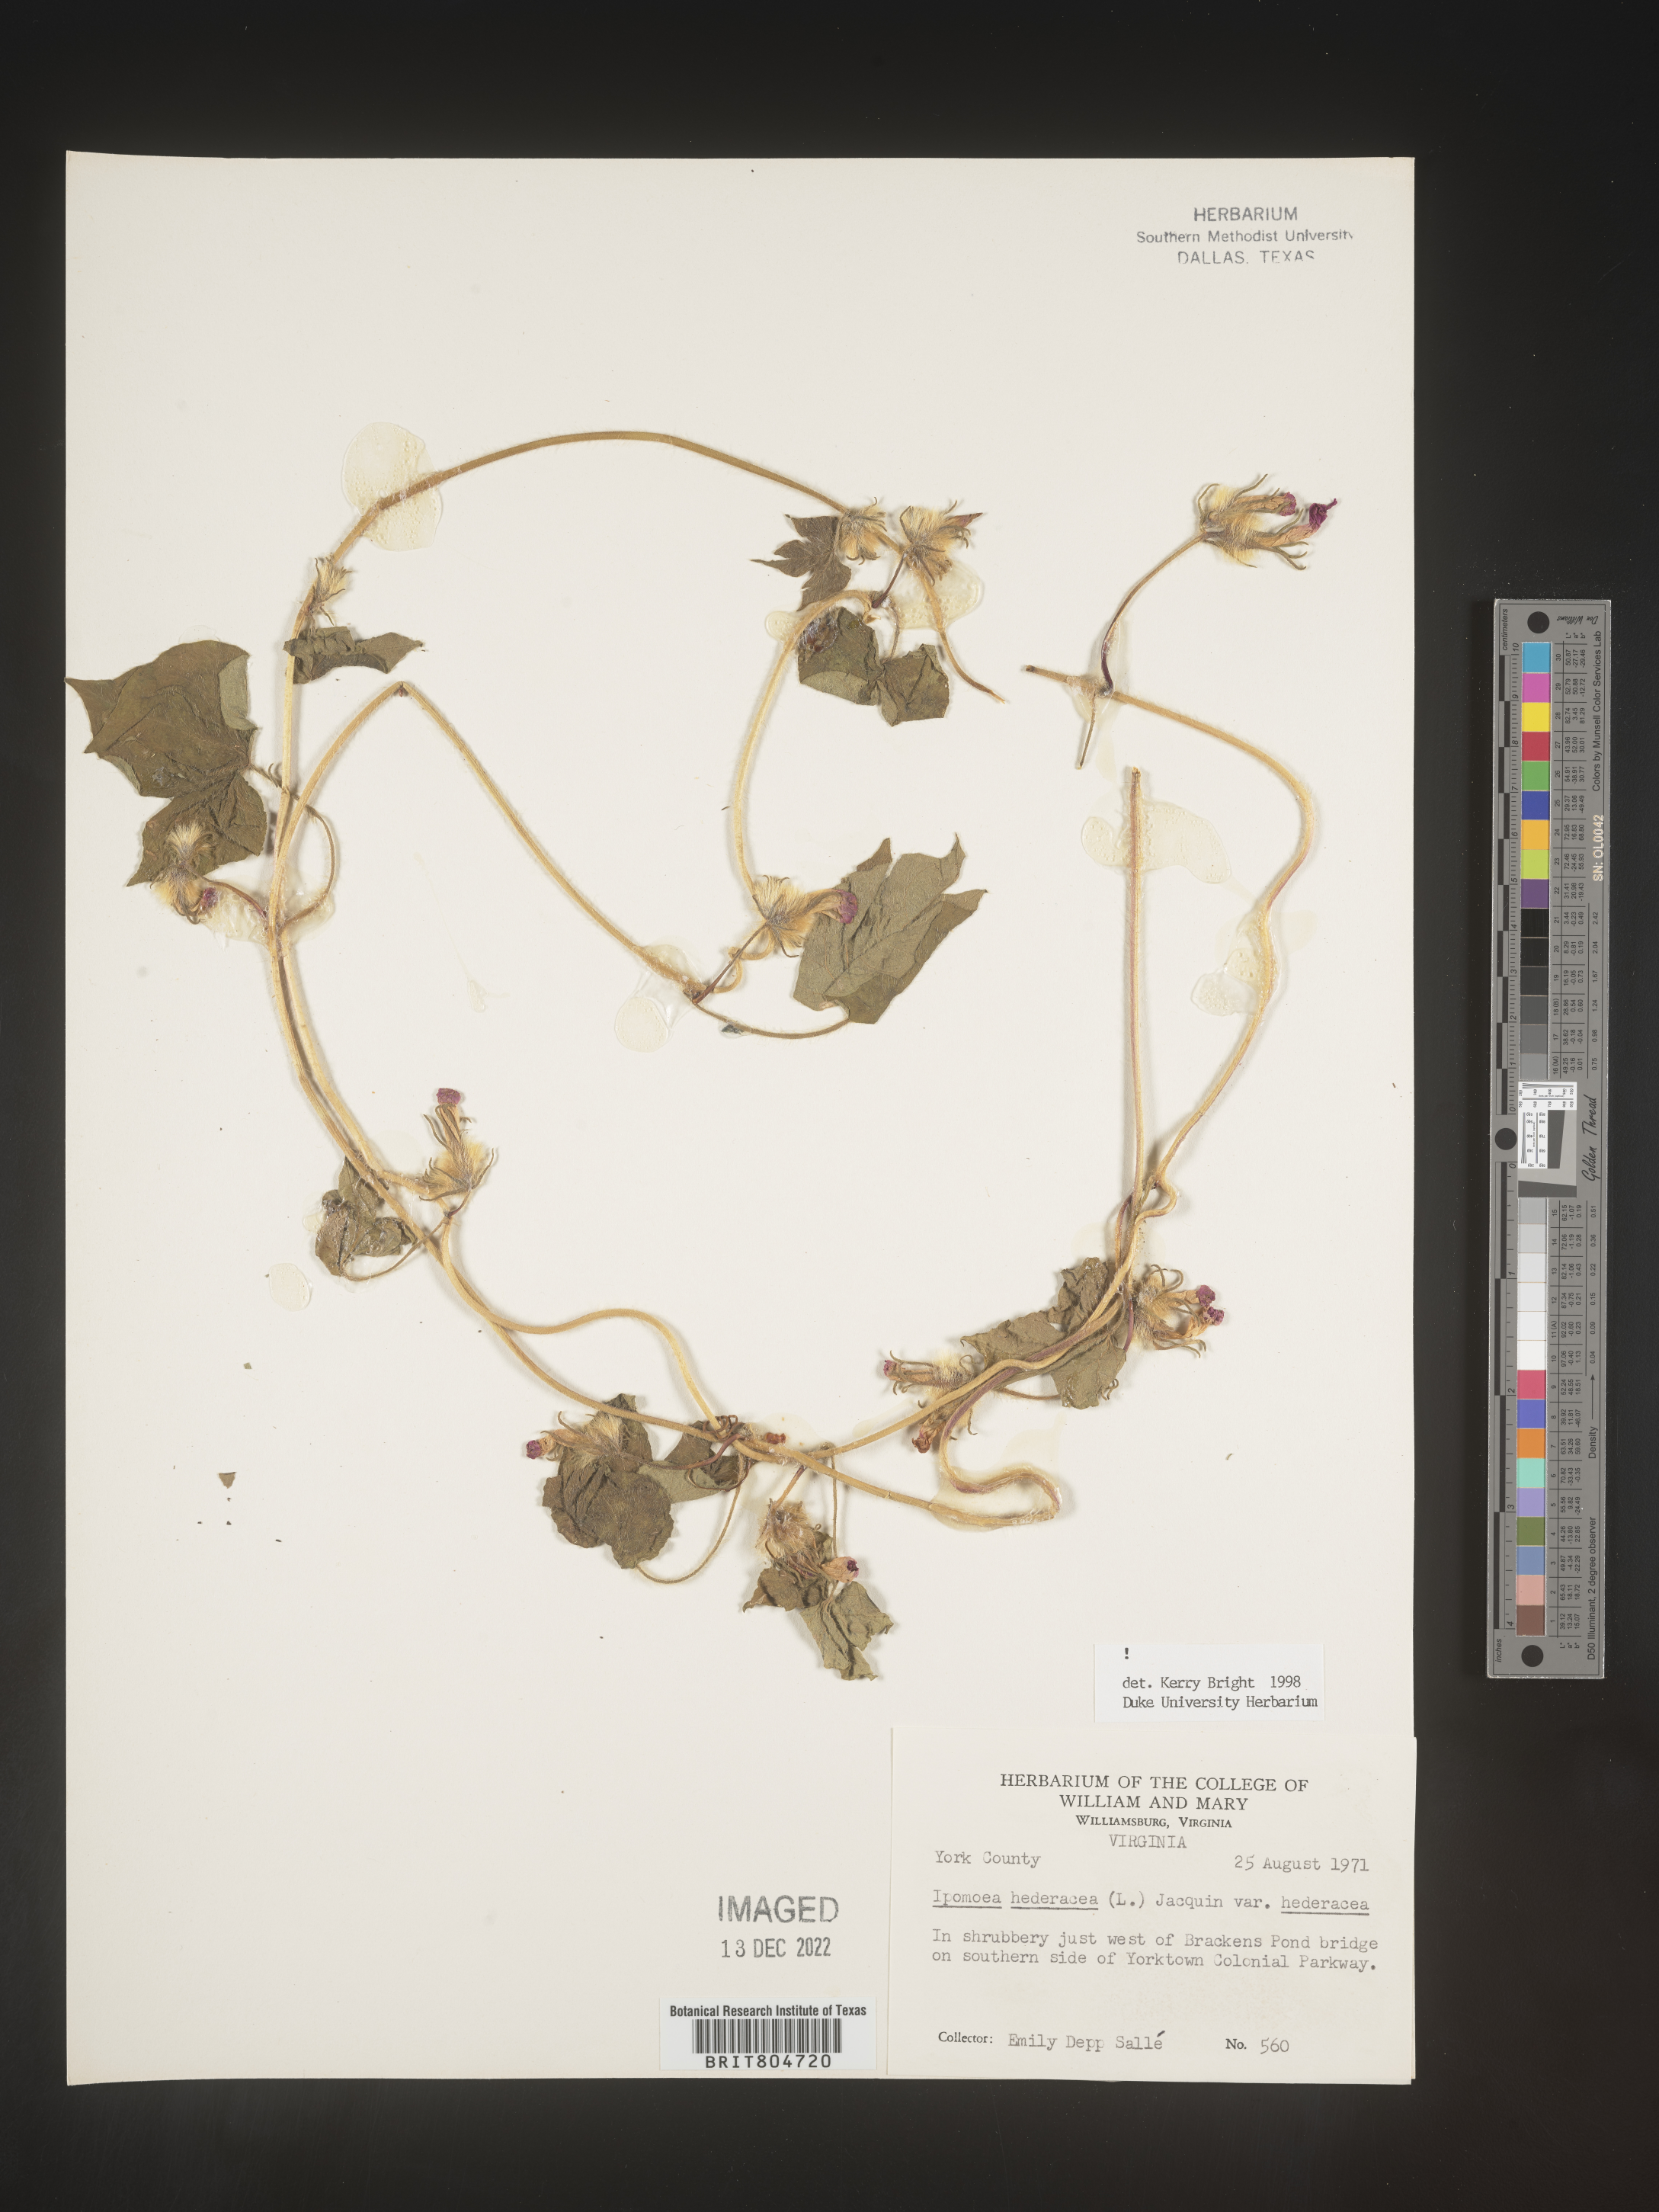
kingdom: Plantae
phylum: Tracheophyta
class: Magnoliopsida
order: Solanales
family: Convolvulaceae
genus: Ipomoea
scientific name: Ipomoea hederacea
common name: Ivy-leaved morning-glory
